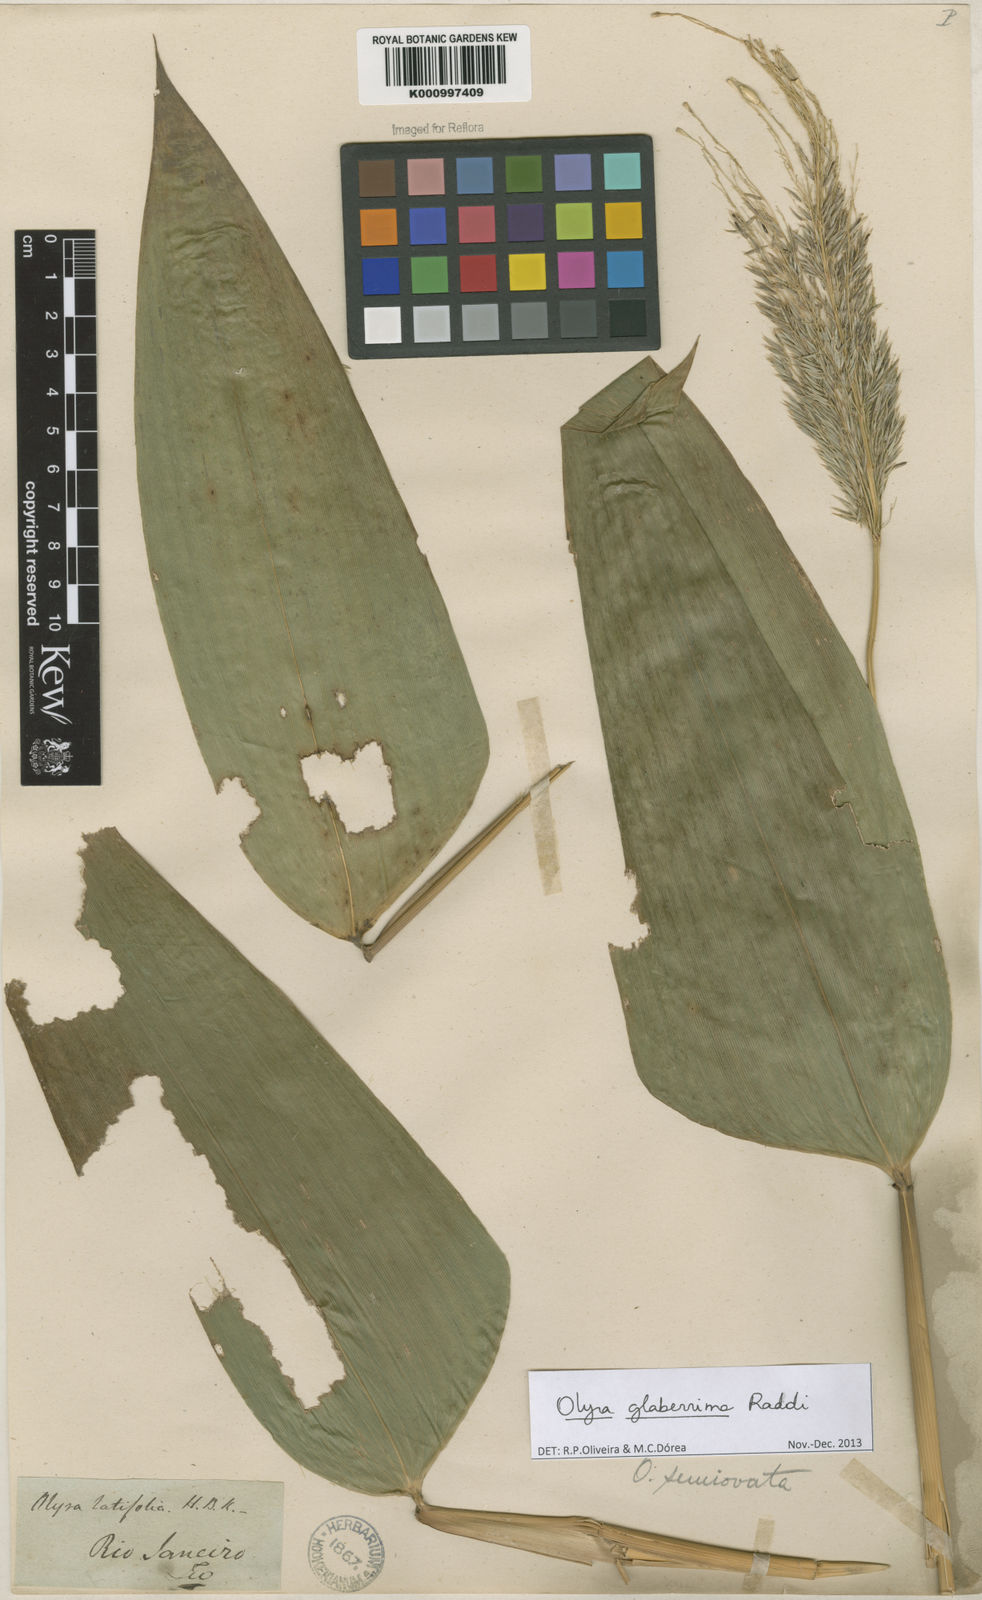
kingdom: Plantae
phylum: Tracheophyta
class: Liliopsida
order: Poales
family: Poaceae
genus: Olyra
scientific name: Olyra glaberrima
